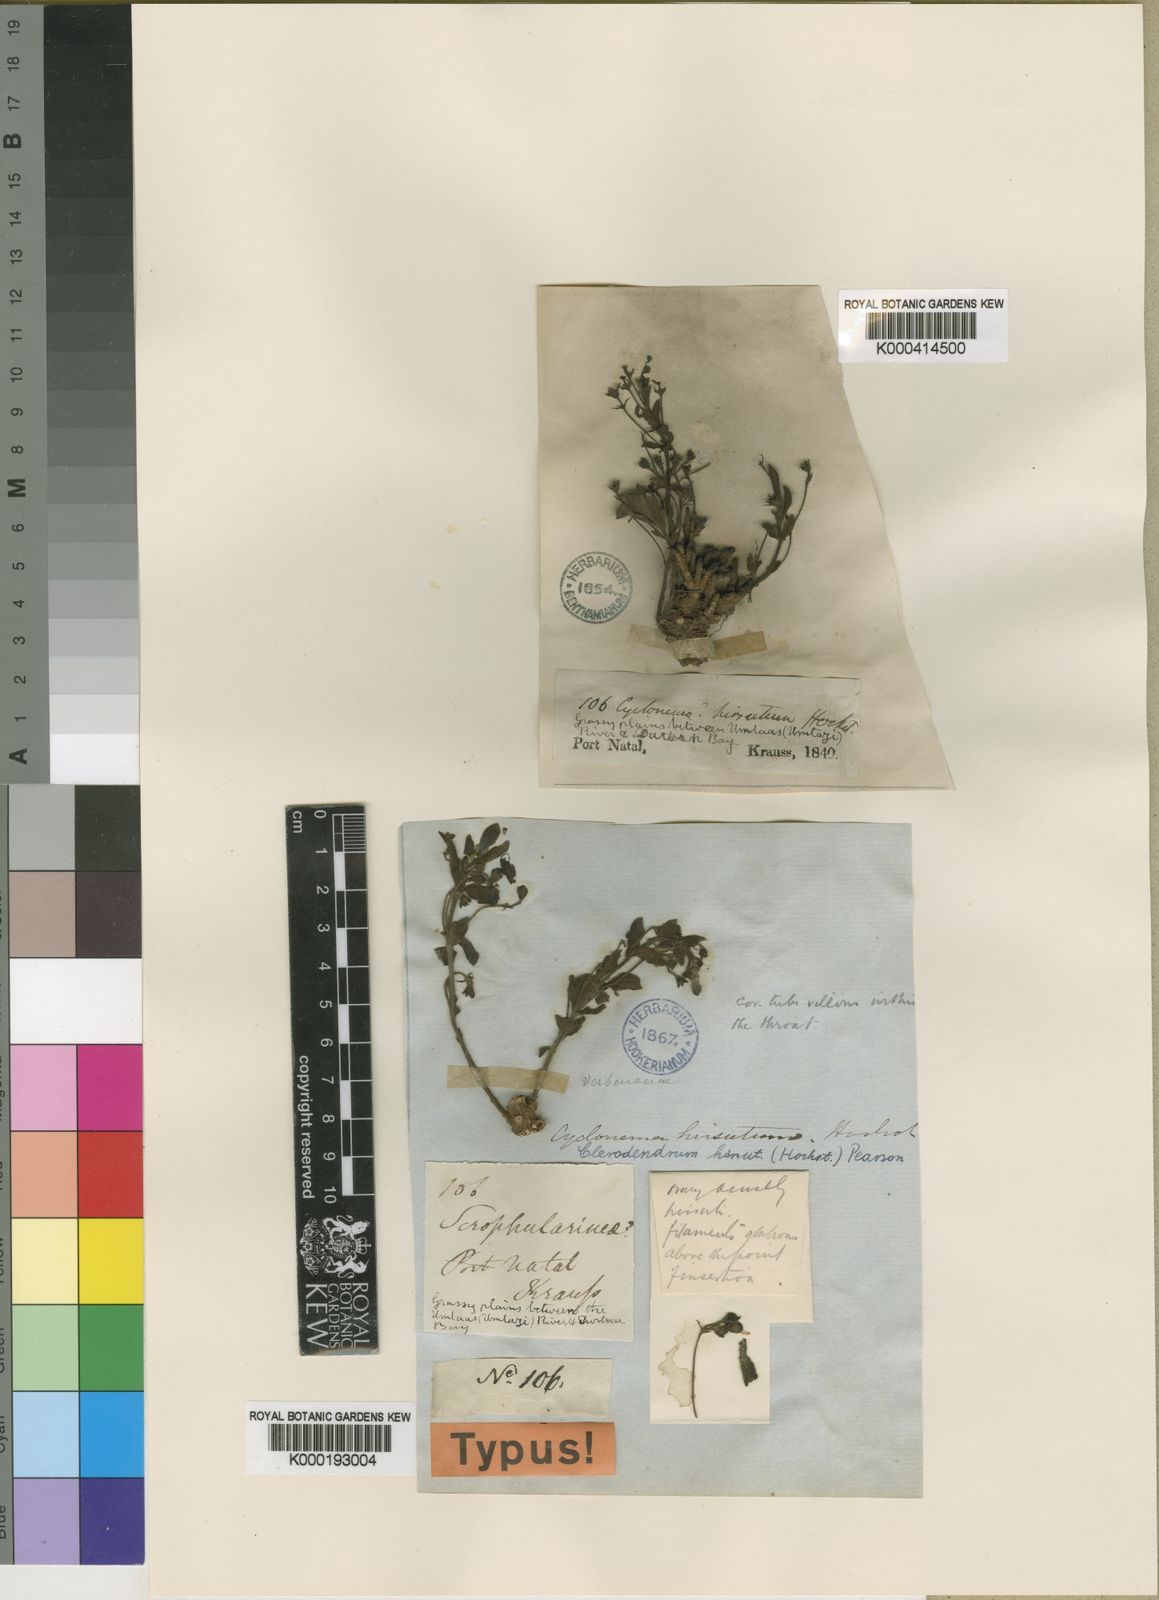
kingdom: Plantae
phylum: Tracheophyta
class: Magnoliopsida
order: Lamiales
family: Lamiaceae
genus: Rotheca
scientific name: Rotheca hirsuta
